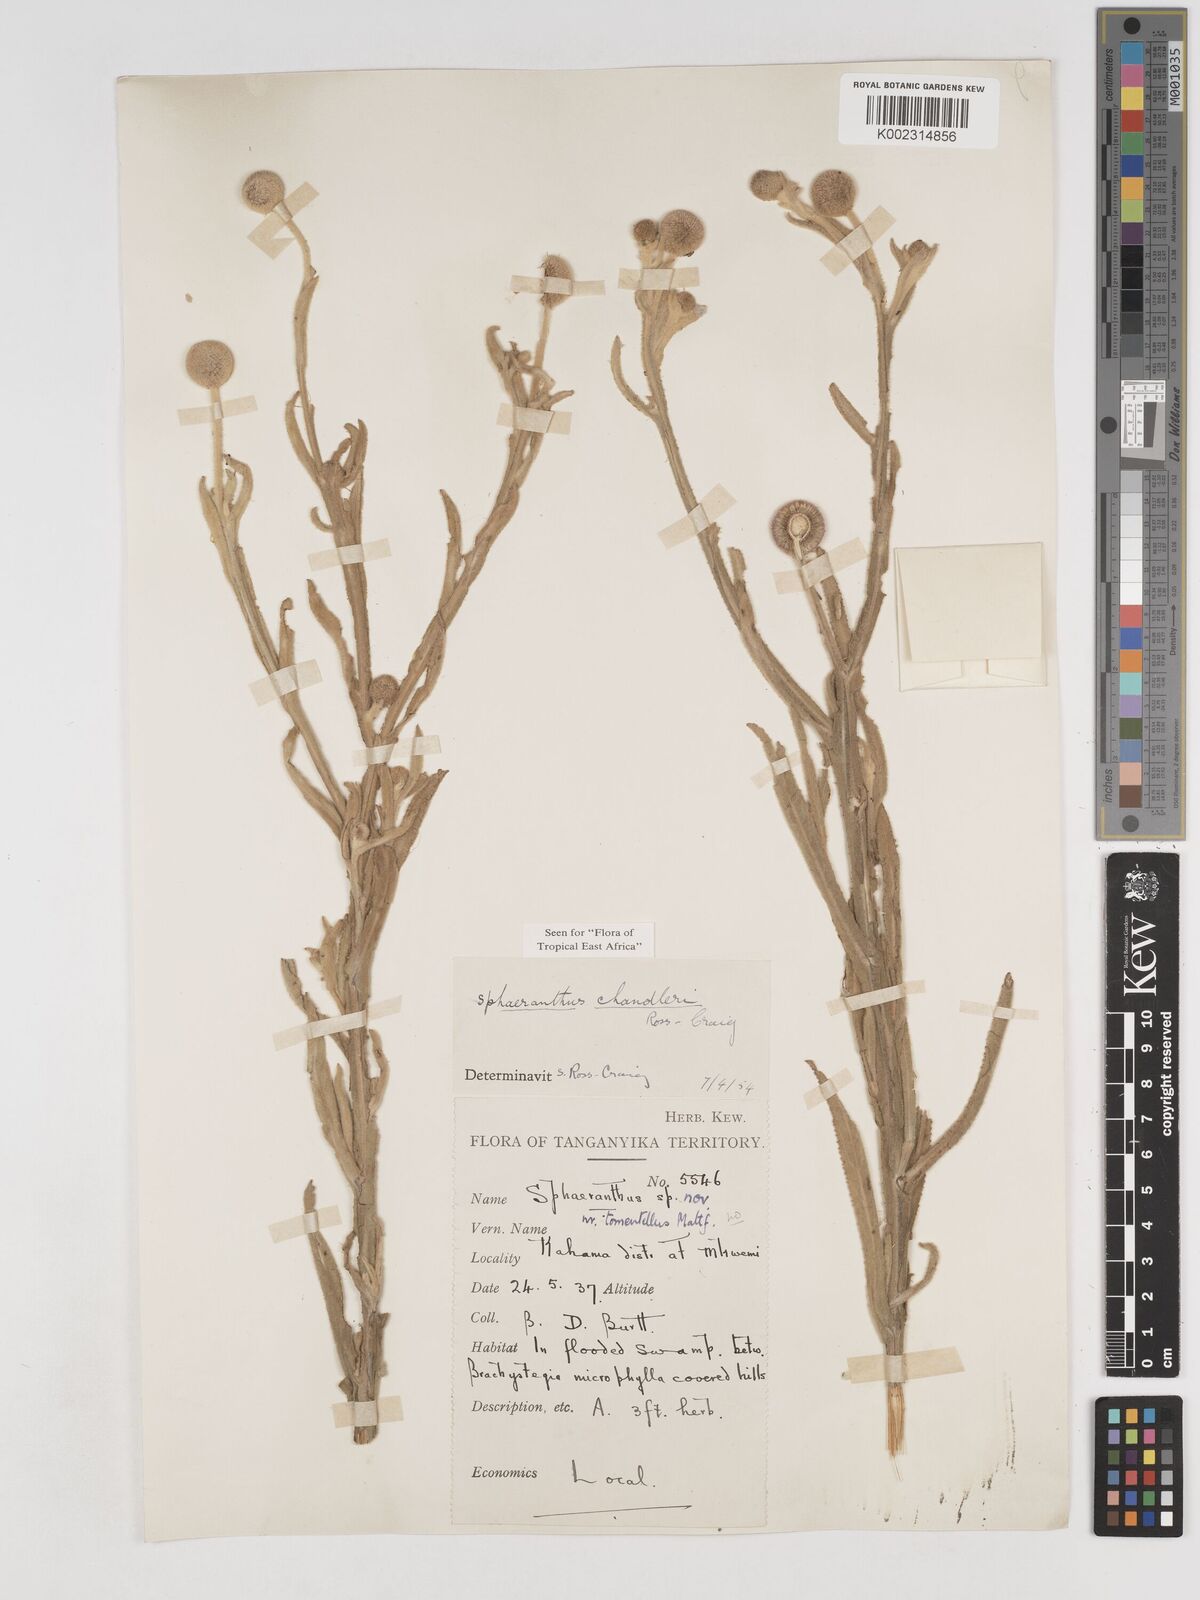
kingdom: Plantae
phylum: Tracheophyta
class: Magnoliopsida
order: Asterales
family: Asteraceae
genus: Sphaeranthus
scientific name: Sphaeranthus chandleri
